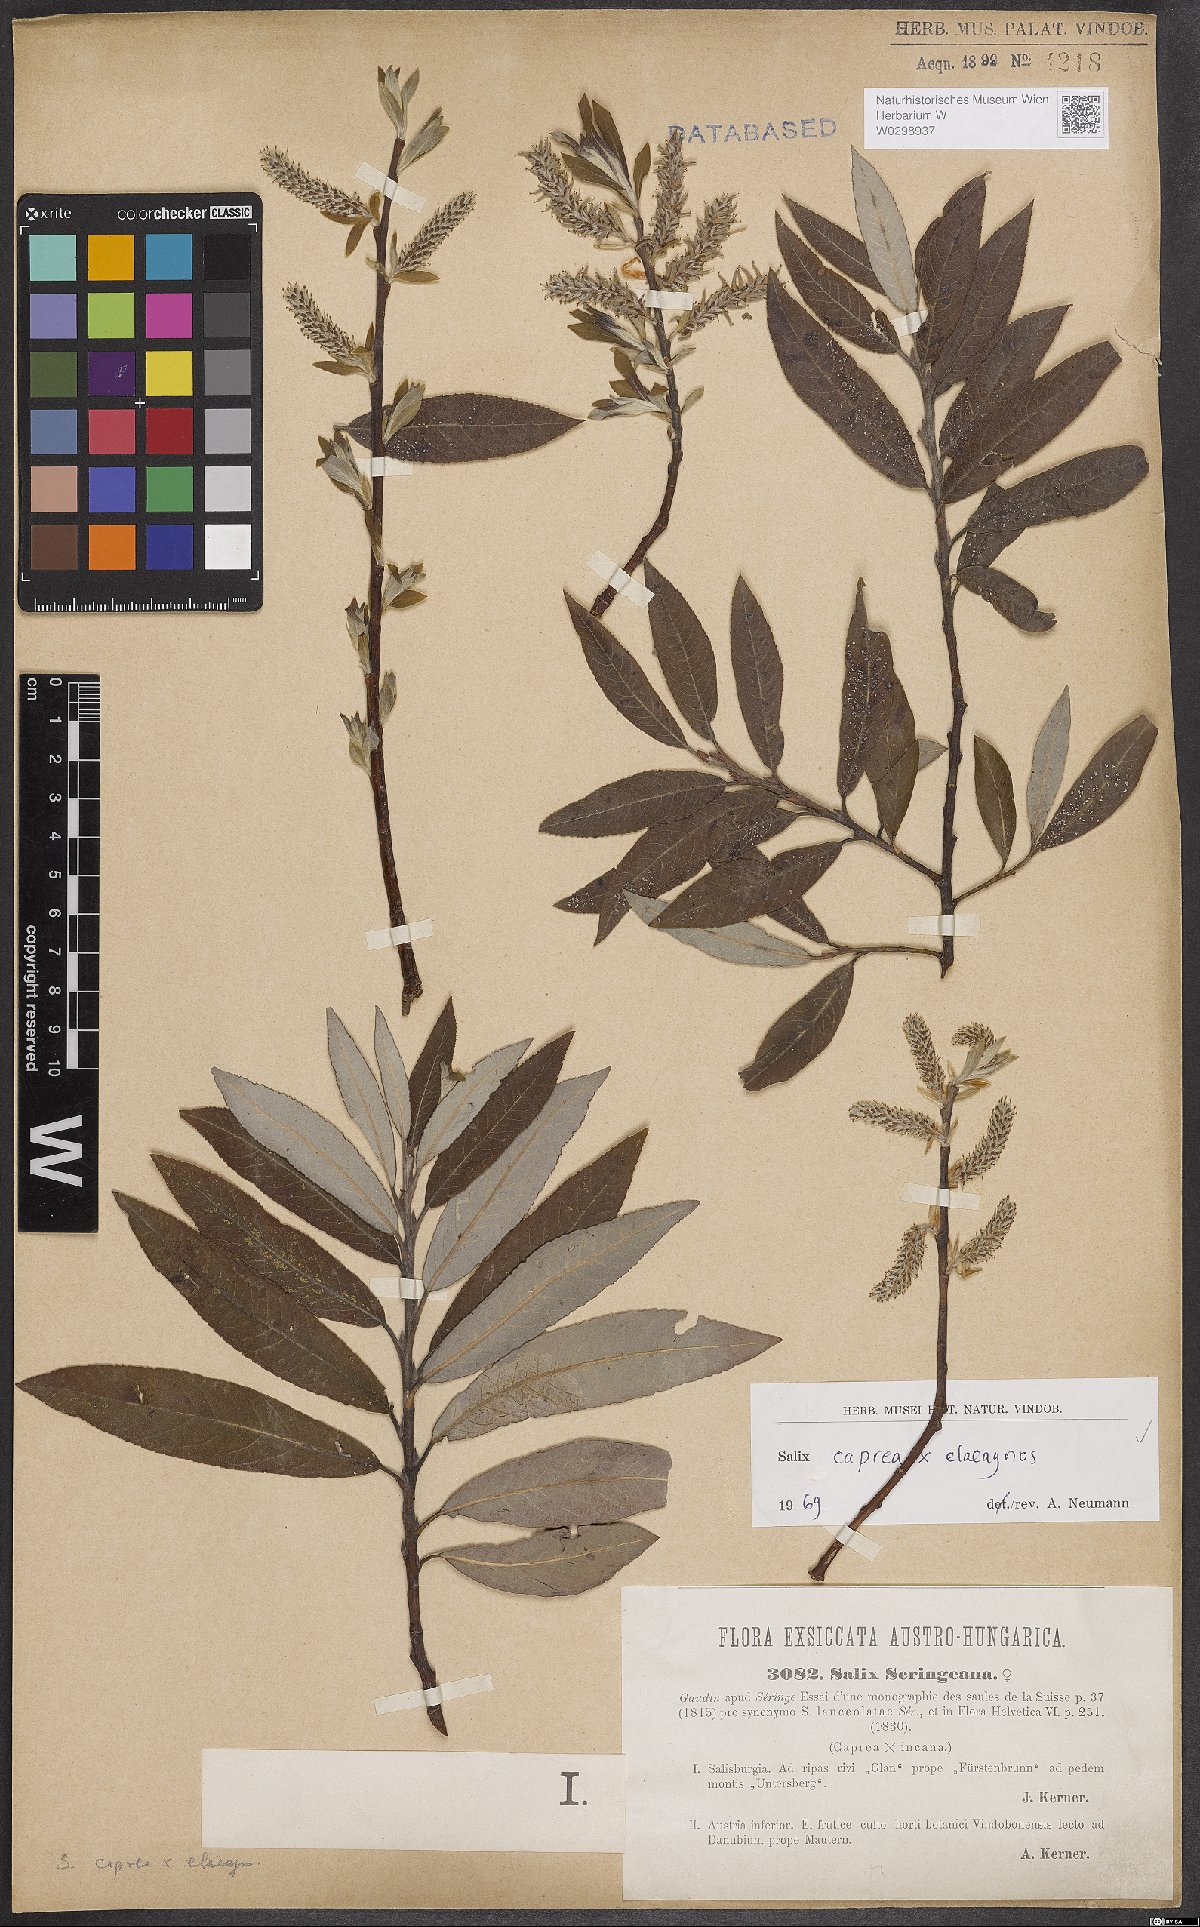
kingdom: Plantae
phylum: Tracheophyta
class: Magnoliopsida
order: Malpighiales
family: Salicaceae
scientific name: Salicaceae
